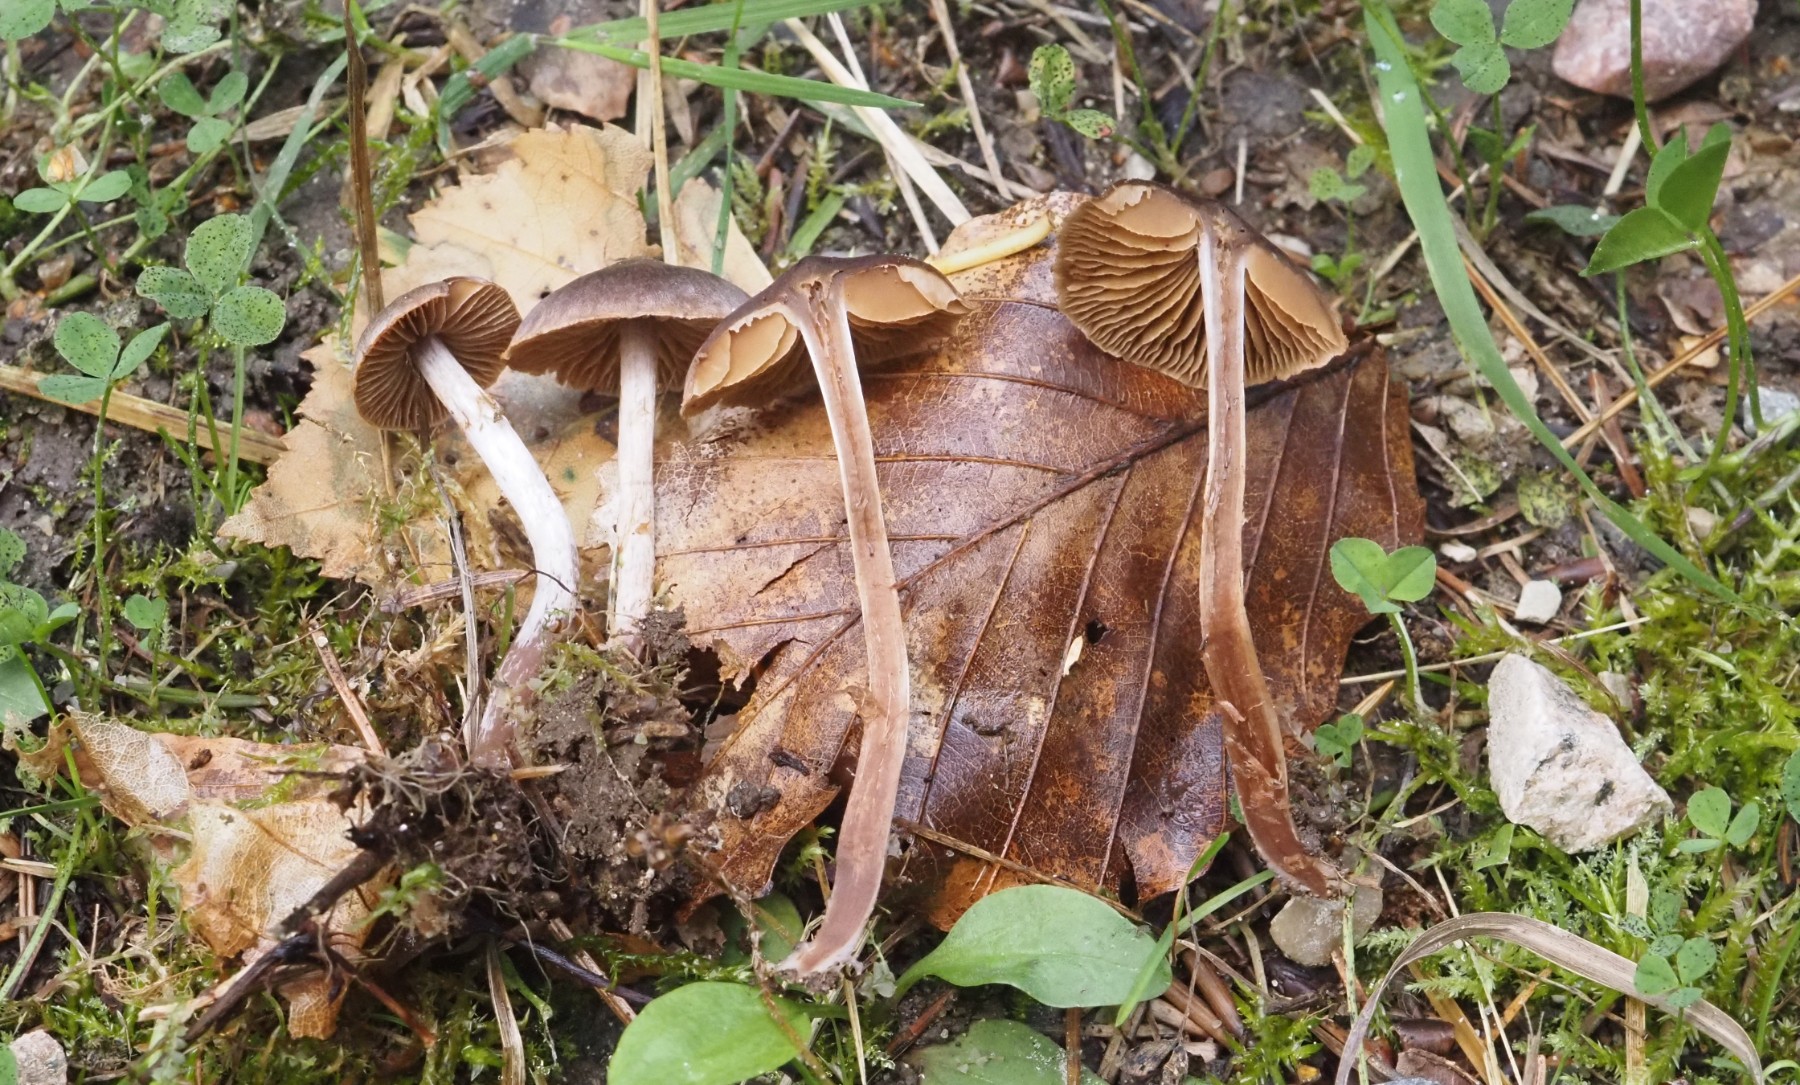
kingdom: Fungi
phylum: Basidiomycota
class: Agaricomycetes
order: Agaricales
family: Cortinariaceae
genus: Cortinarius
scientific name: Cortinarius
